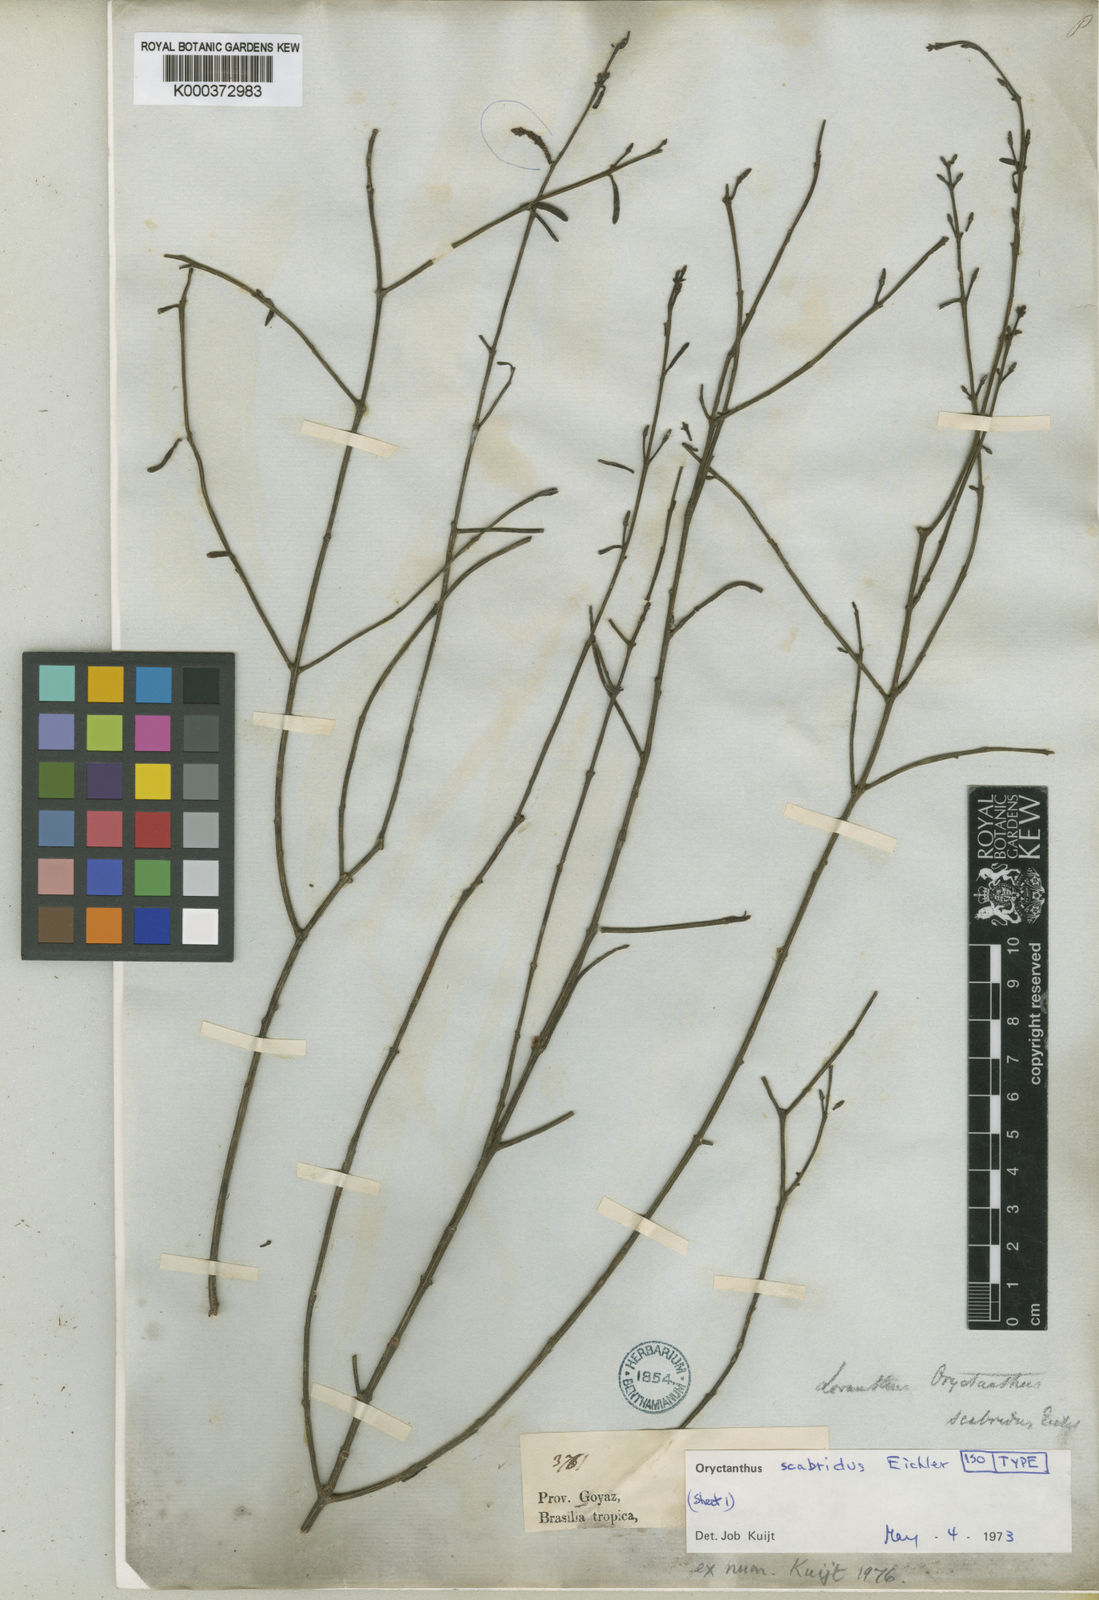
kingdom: Plantae
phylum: Tracheophyta
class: Magnoliopsida
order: Santalales
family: Loranthaceae
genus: Oryctina
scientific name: Oryctina scabrida
